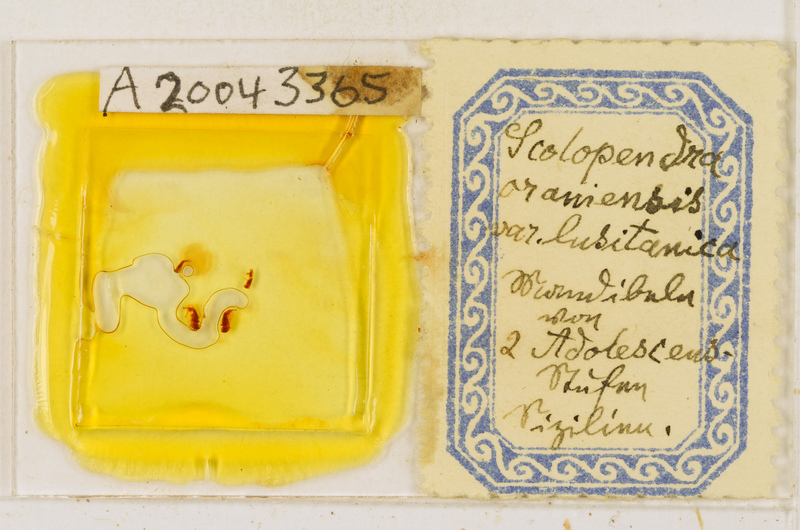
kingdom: Animalia
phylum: Arthropoda
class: Chilopoda
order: Scolopendromorpha
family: Scolopendridae
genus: Scolopendra
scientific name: Scolopendra oraniensis
